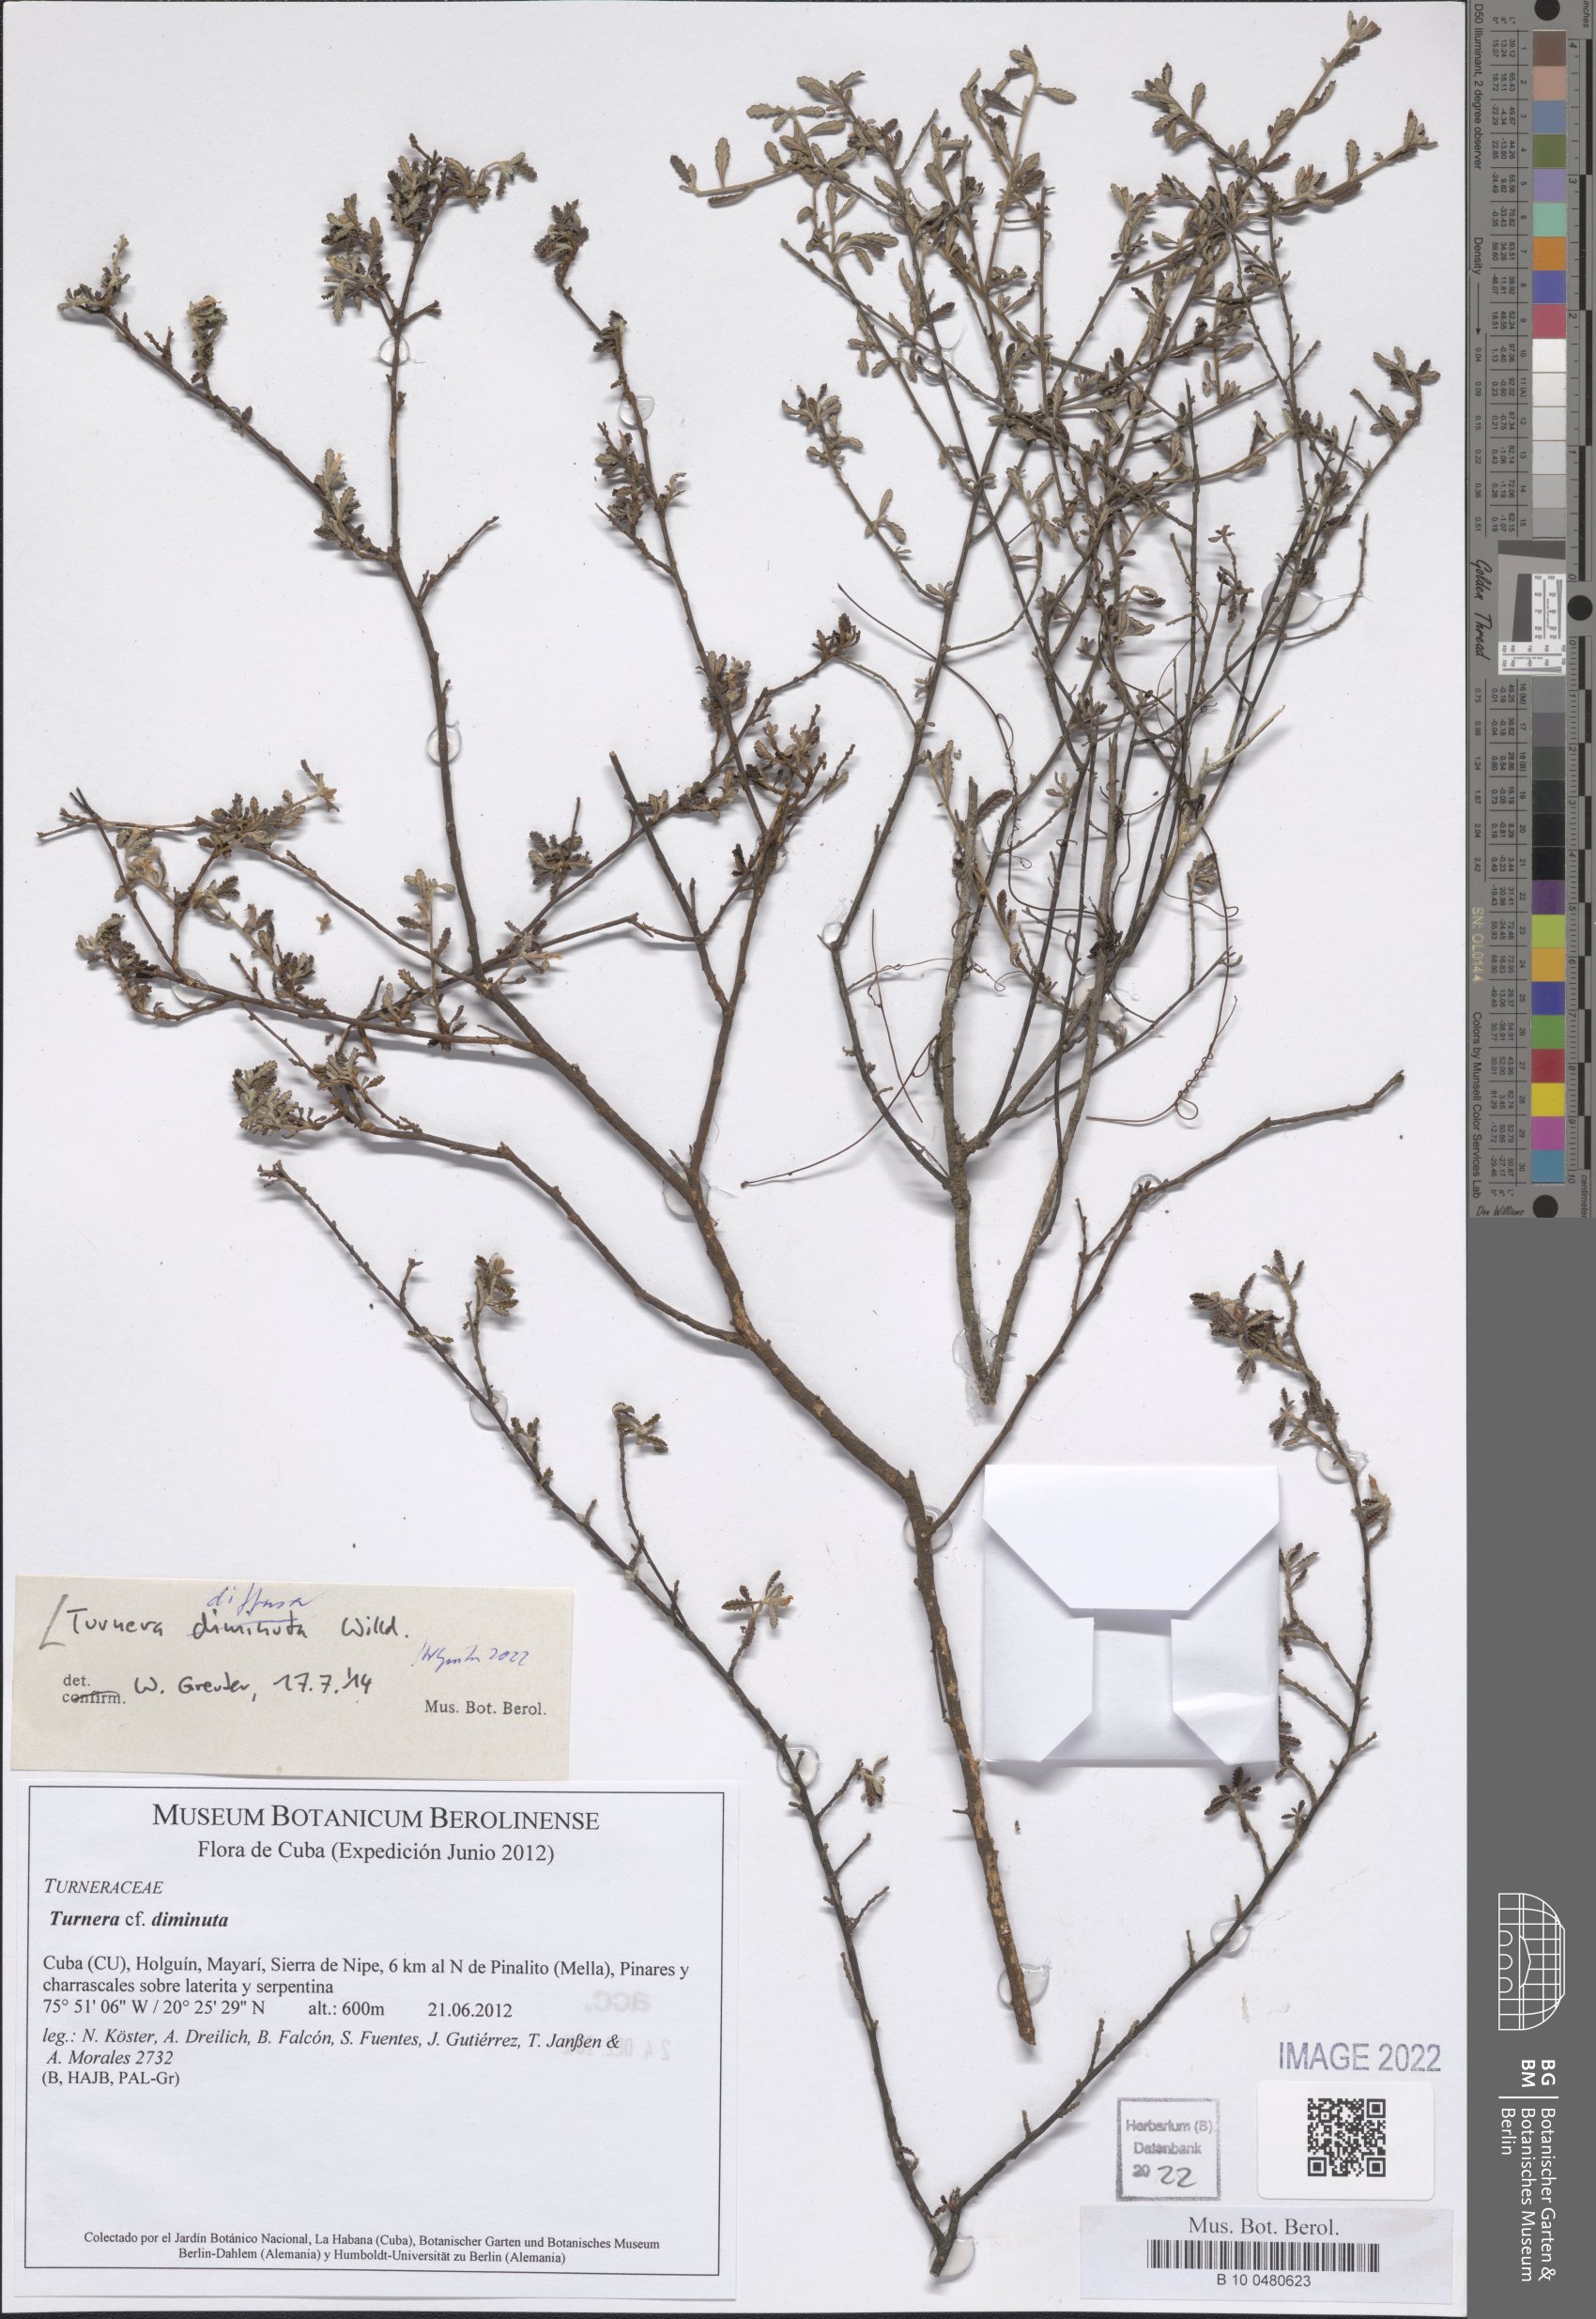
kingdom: Plantae
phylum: Tracheophyta
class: Magnoliopsida
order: Malpighiales
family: Turneraceae
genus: Turnera
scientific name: Turnera diffusa
